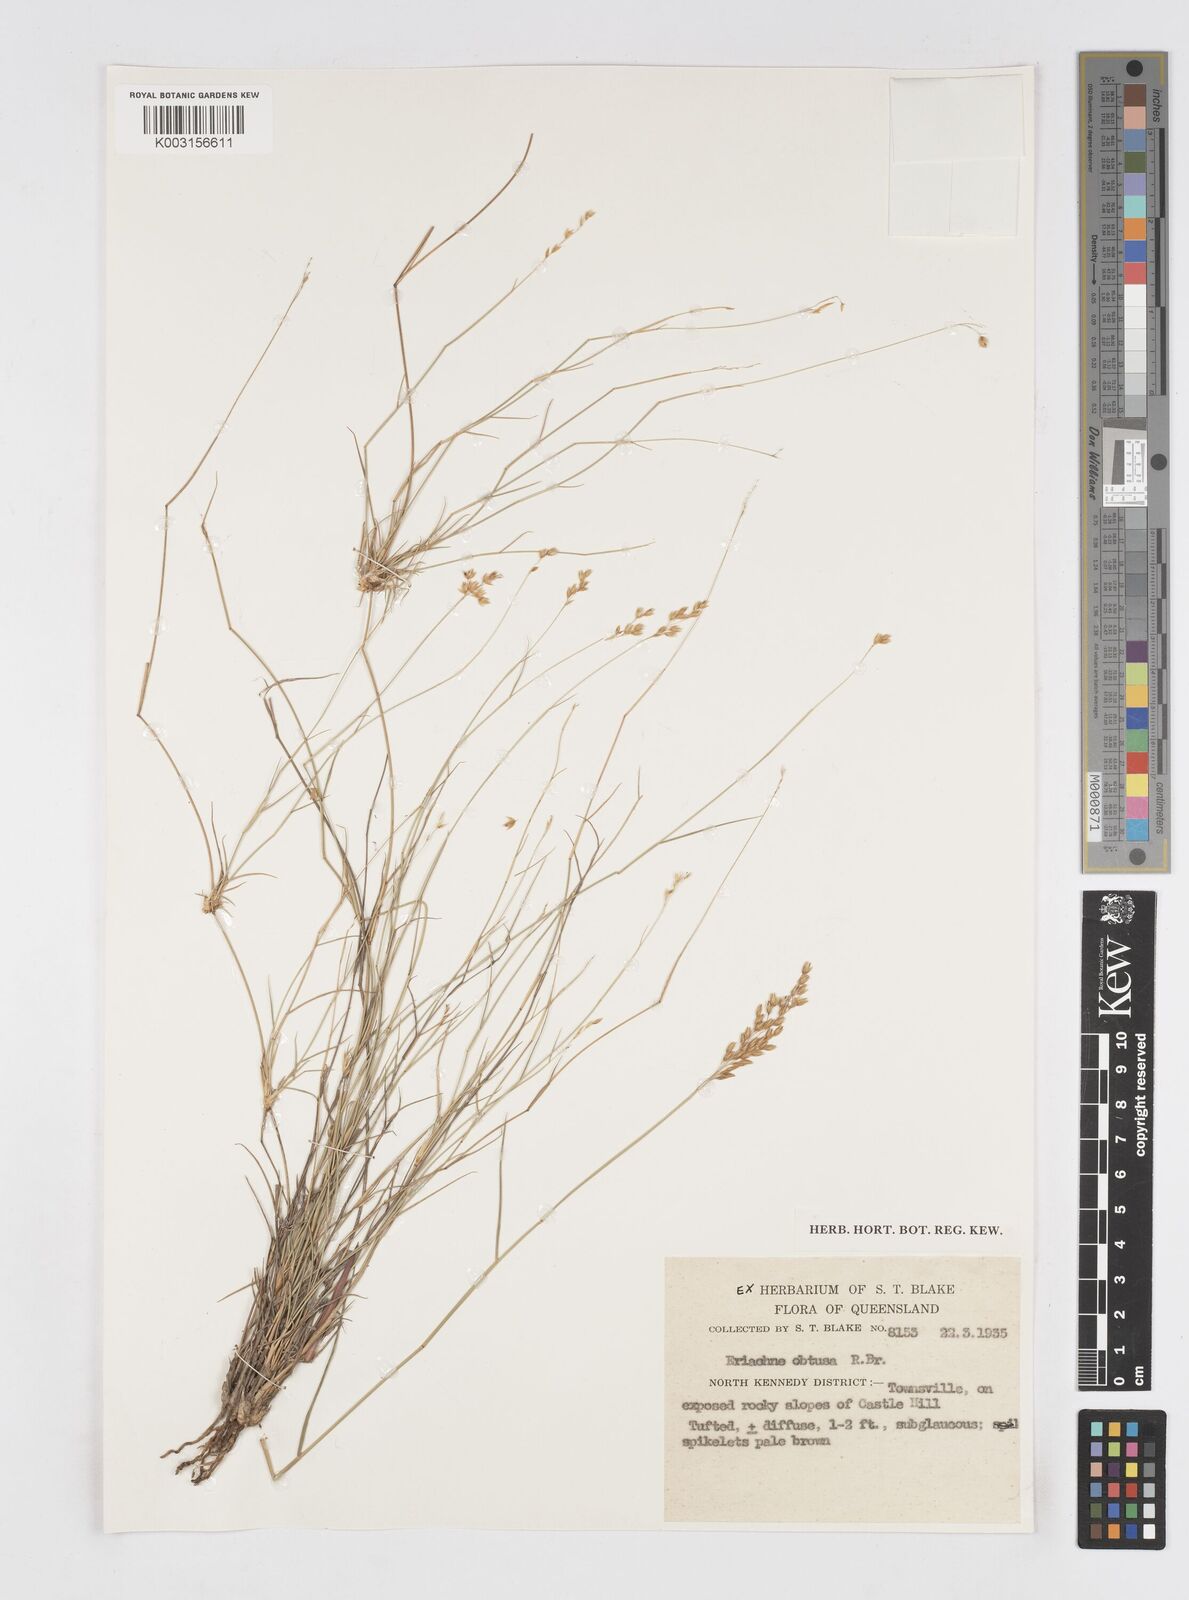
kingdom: Plantae
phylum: Tracheophyta
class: Liliopsida
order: Poales
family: Poaceae
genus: Eriachne
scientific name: Eriachne obtusa
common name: Northern wanderrie grass
